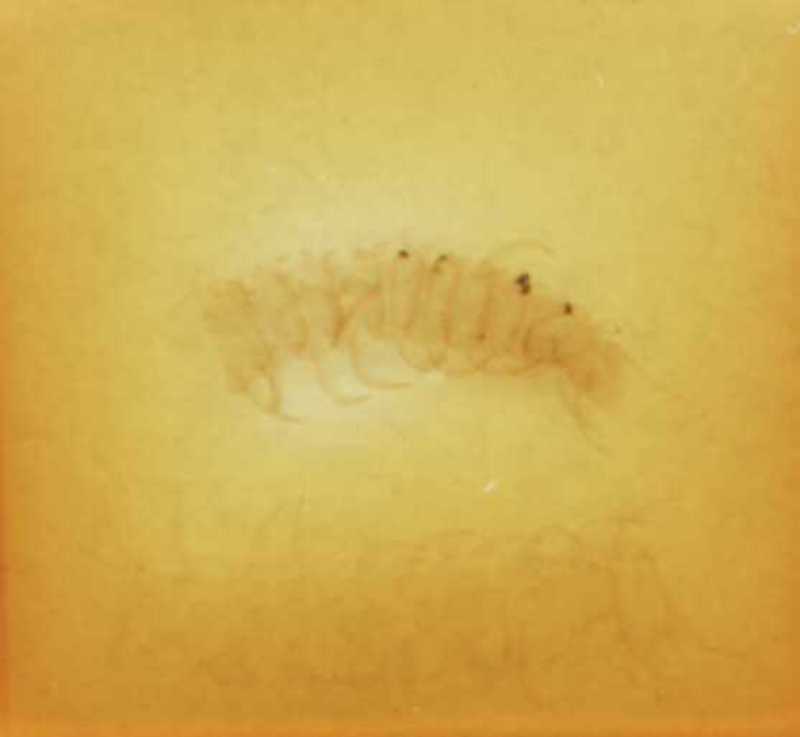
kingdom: Animalia
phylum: Arthropoda
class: Chilopoda
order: Geophilomorpha
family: Linotaeniidae
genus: Strigamia
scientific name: Strigamia transsilvanica
